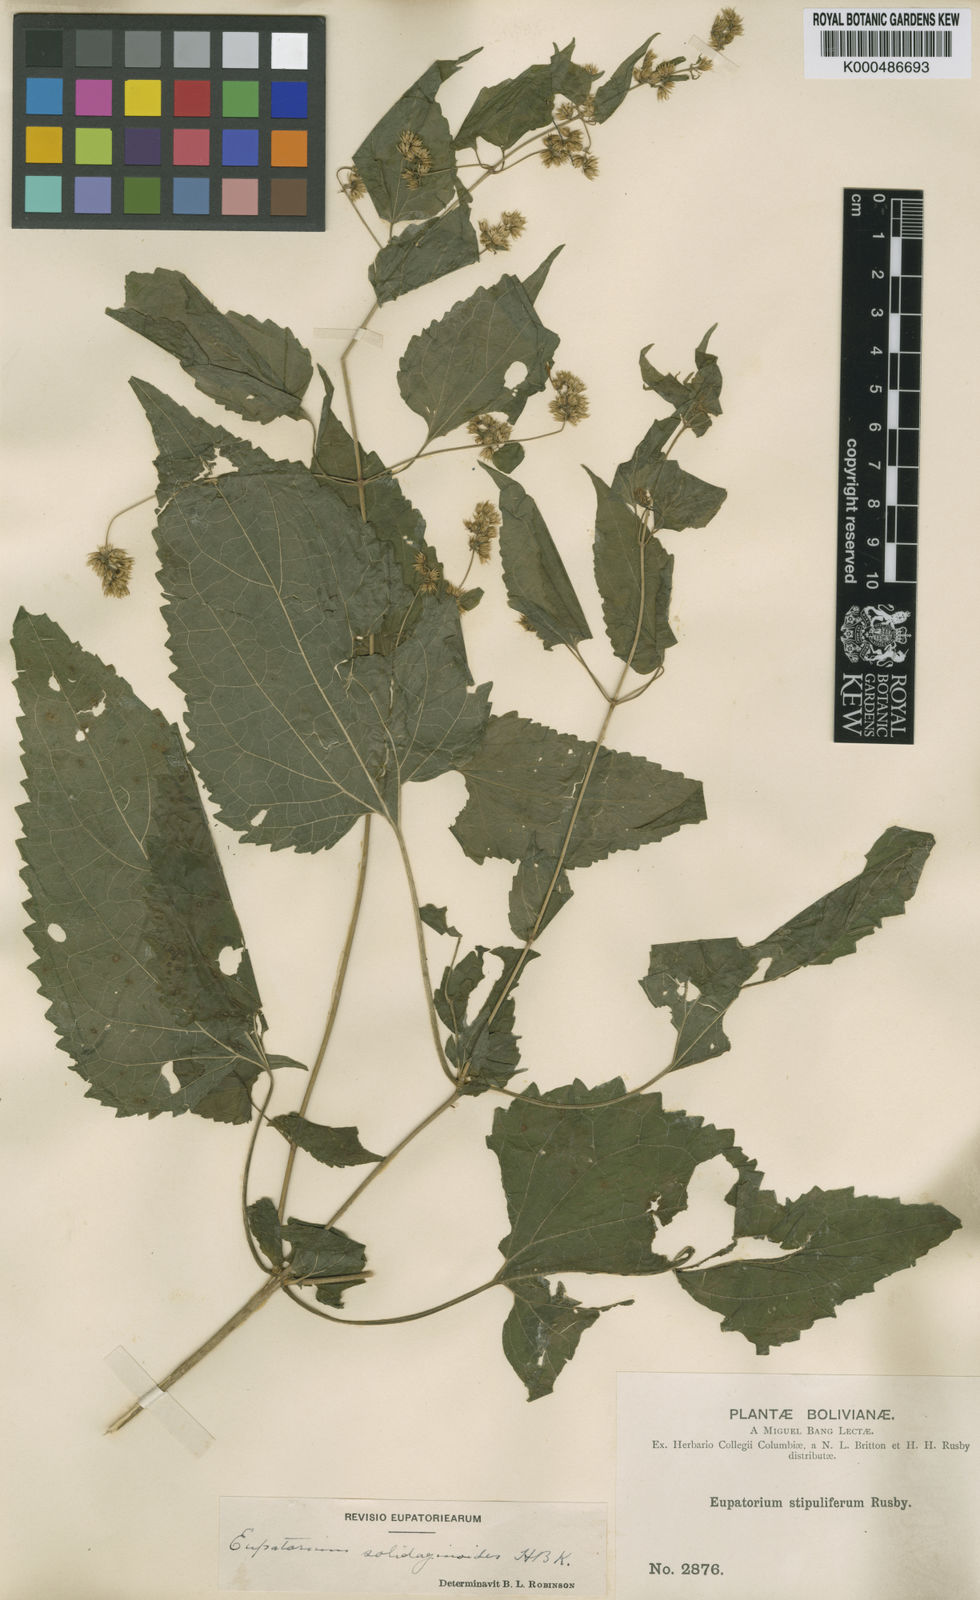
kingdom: Plantae
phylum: Tracheophyta
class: Magnoliopsida
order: Asterales
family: Asteraceae
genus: Koanophyllon
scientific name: Koanophyllon solidaginoides
